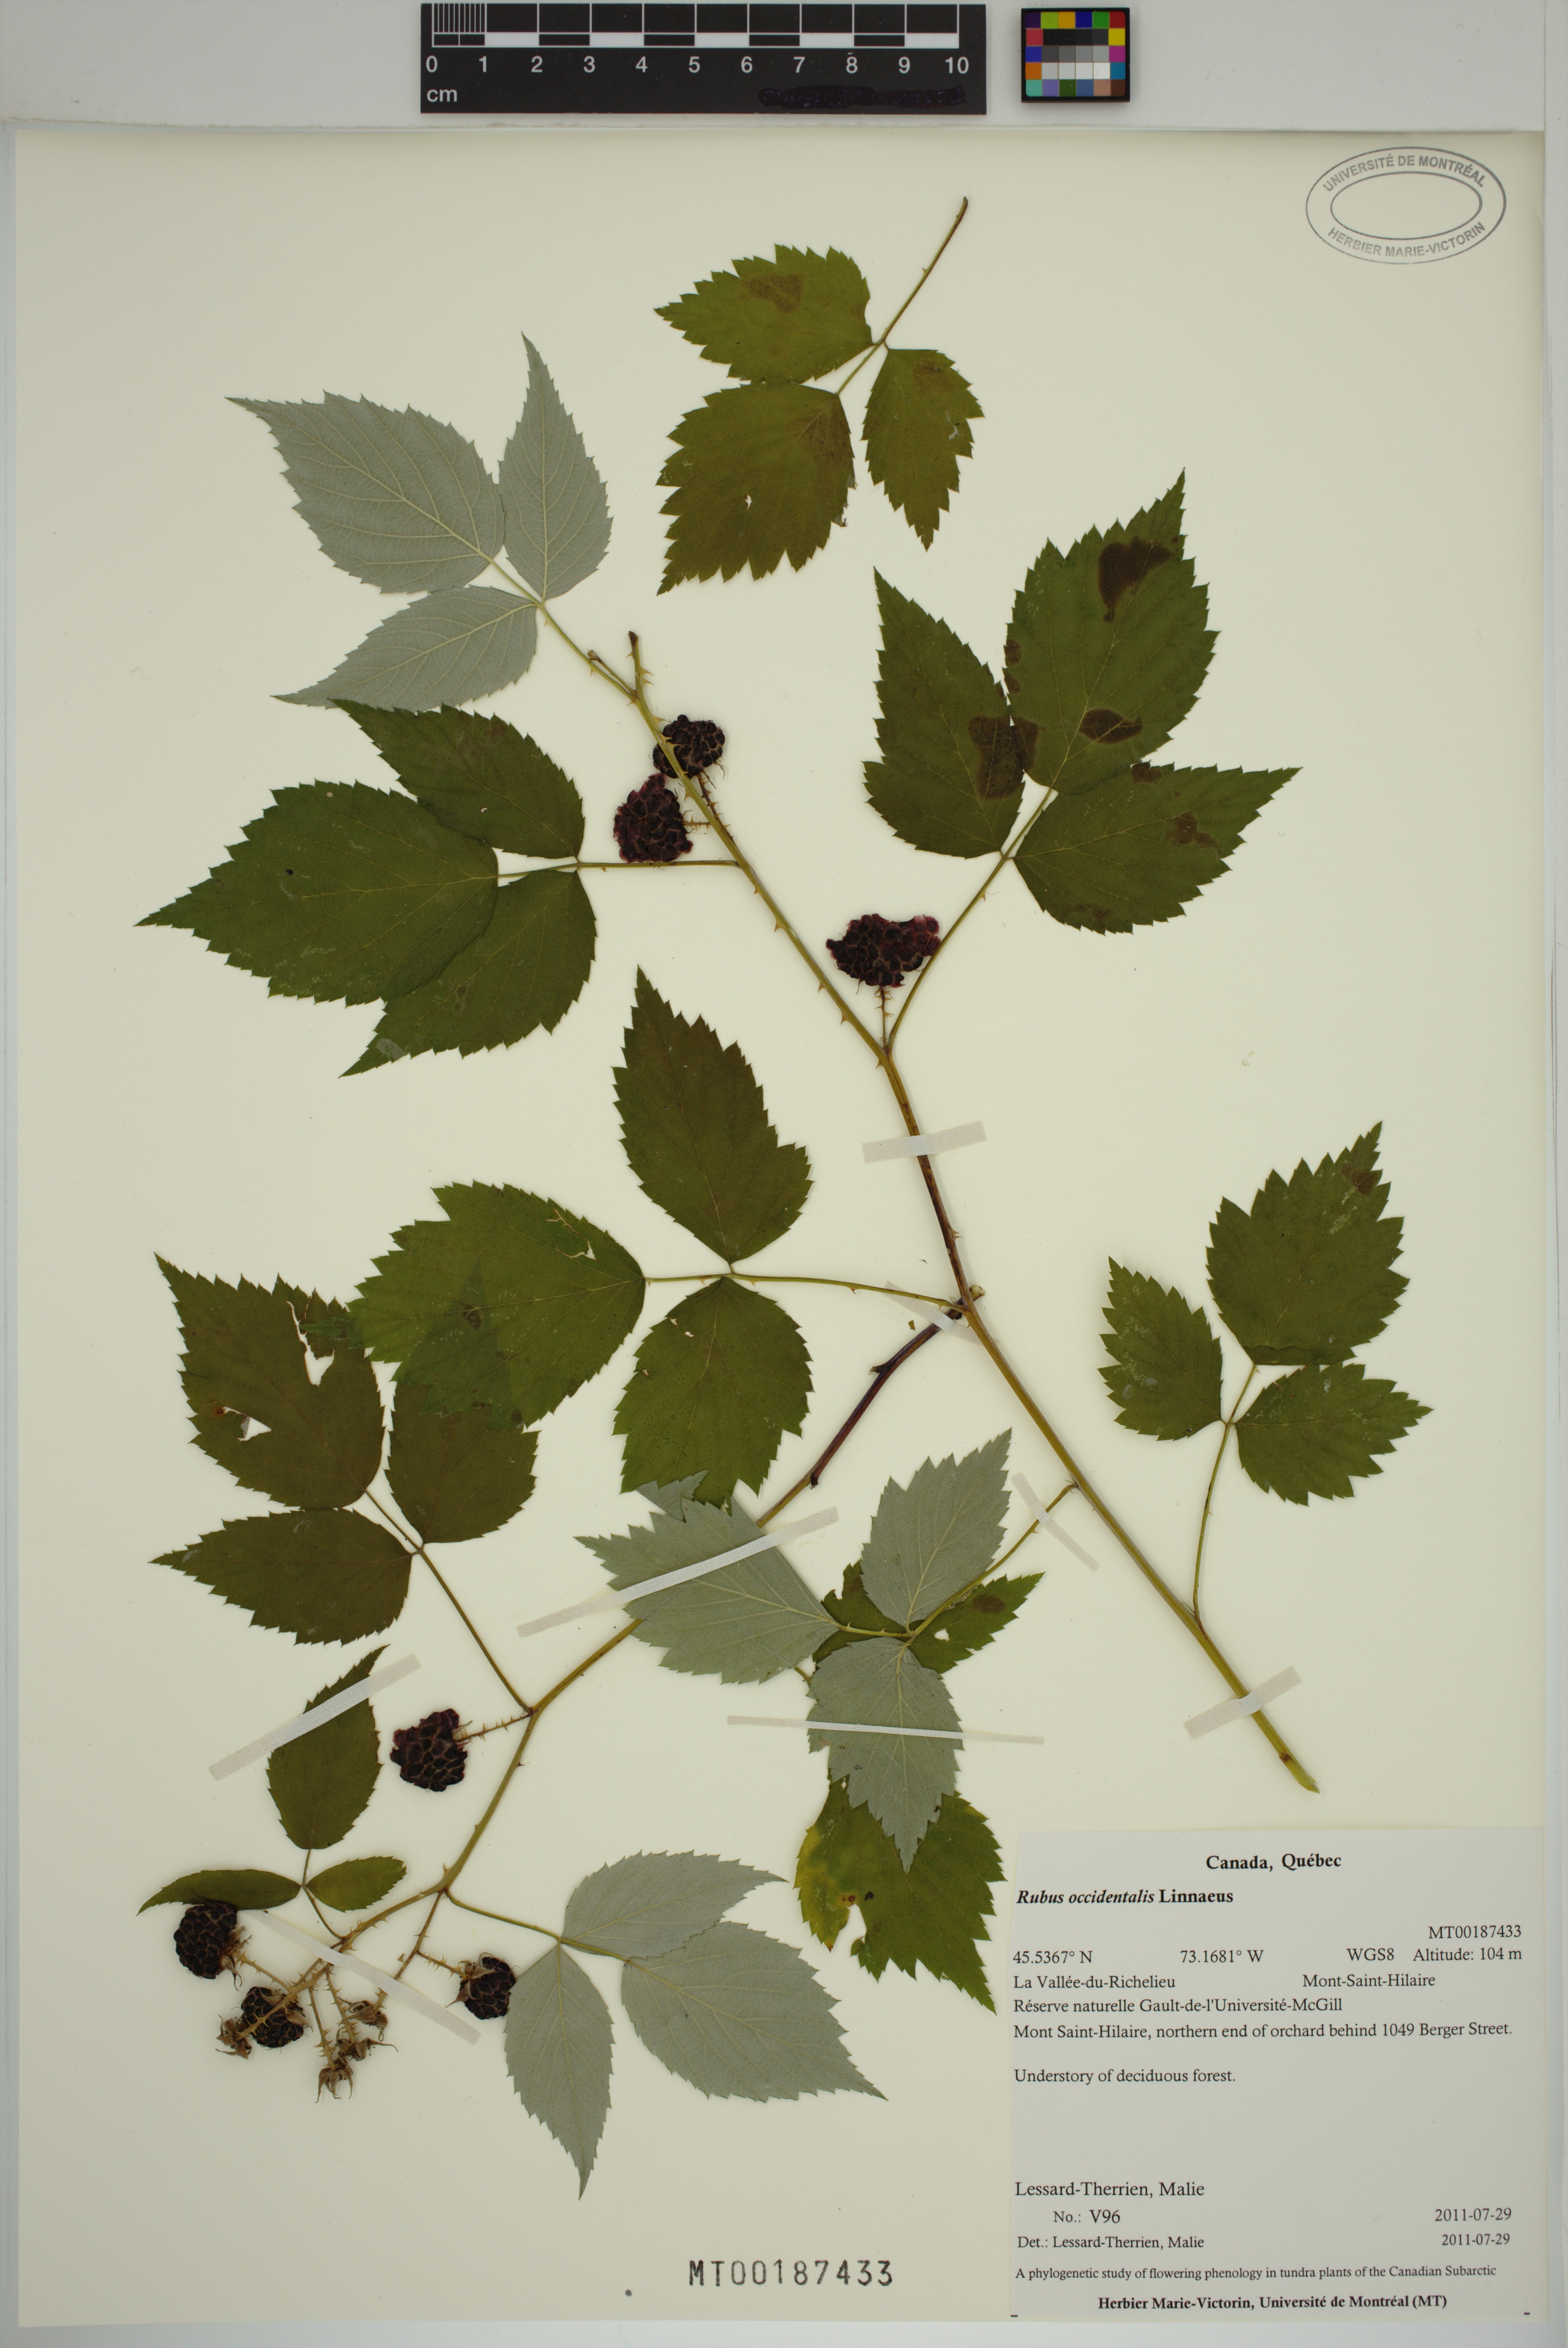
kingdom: Plantae
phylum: Tracheophyta
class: Magnoliopsida
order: Rosales
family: Rosaceae
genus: Rubus
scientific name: Rubus occidentalis
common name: Black raspberry
